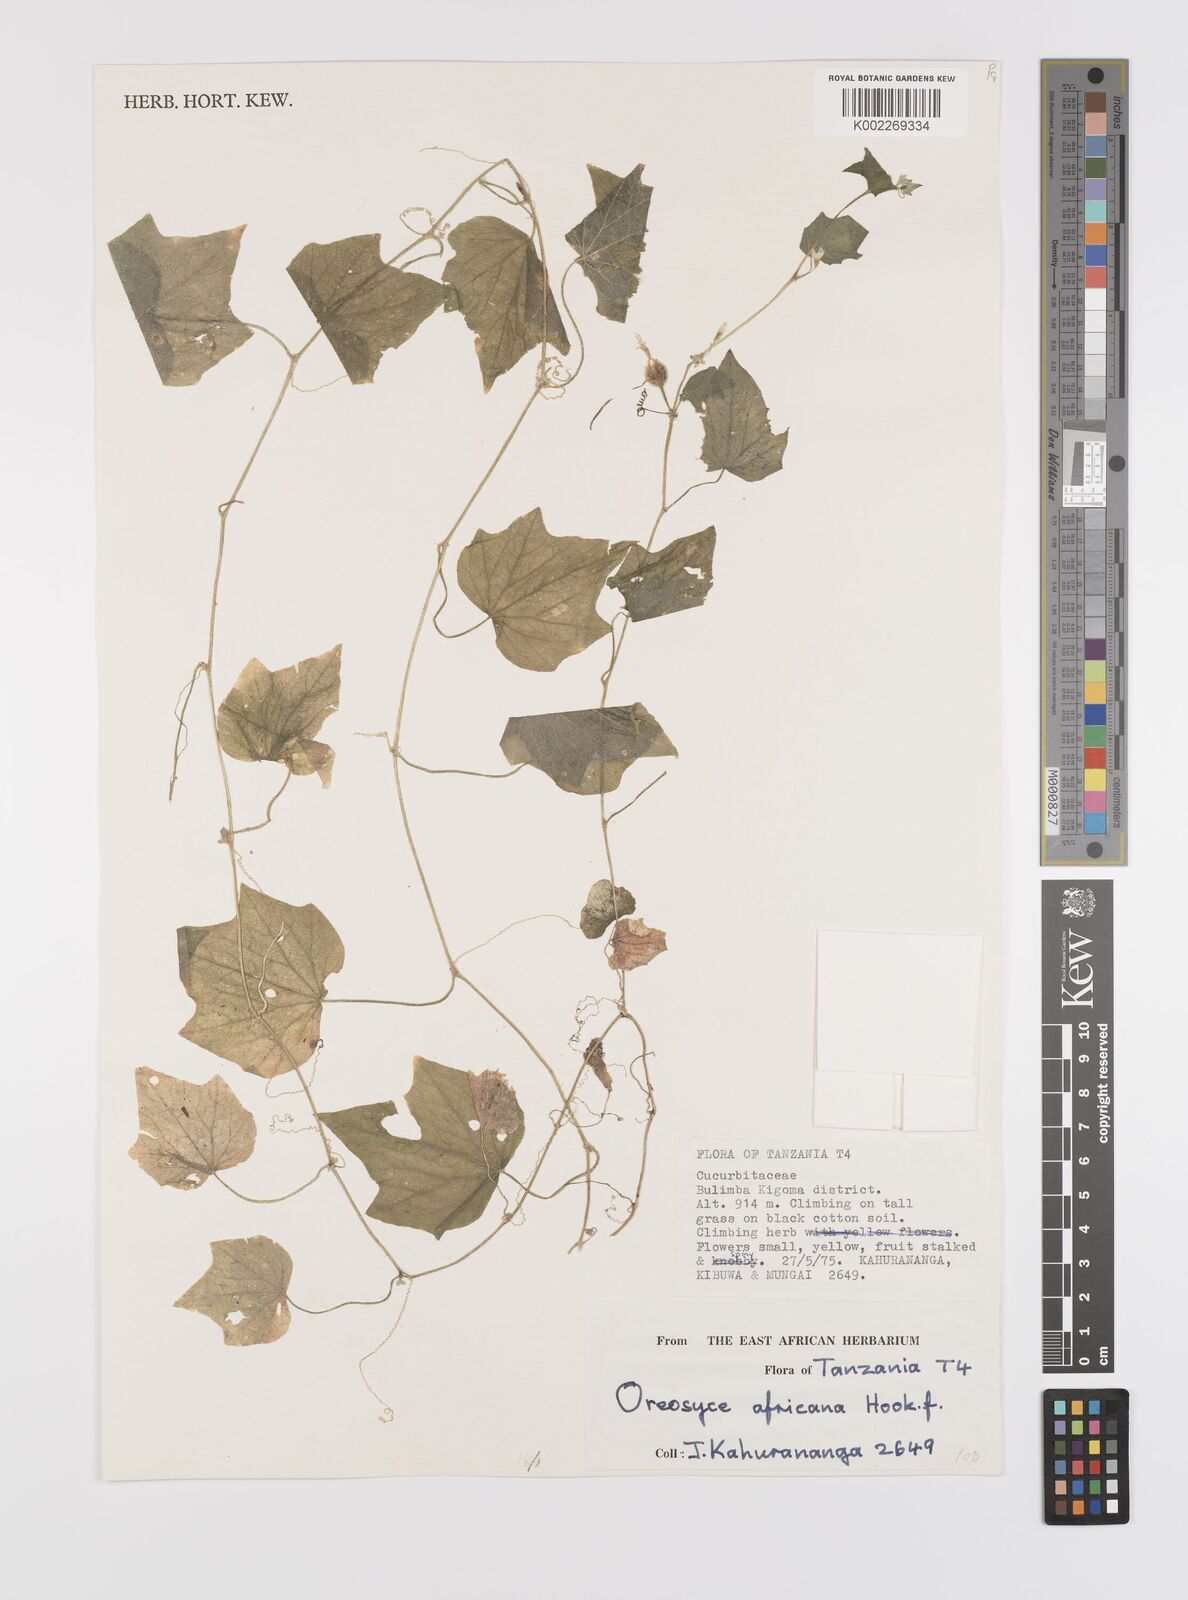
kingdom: Plantae
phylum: Tracheophyta
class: Magnoliopsida
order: Cucurbitales
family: Cucurbitaceae
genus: Cucumis
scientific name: Cucumis oreosyce
